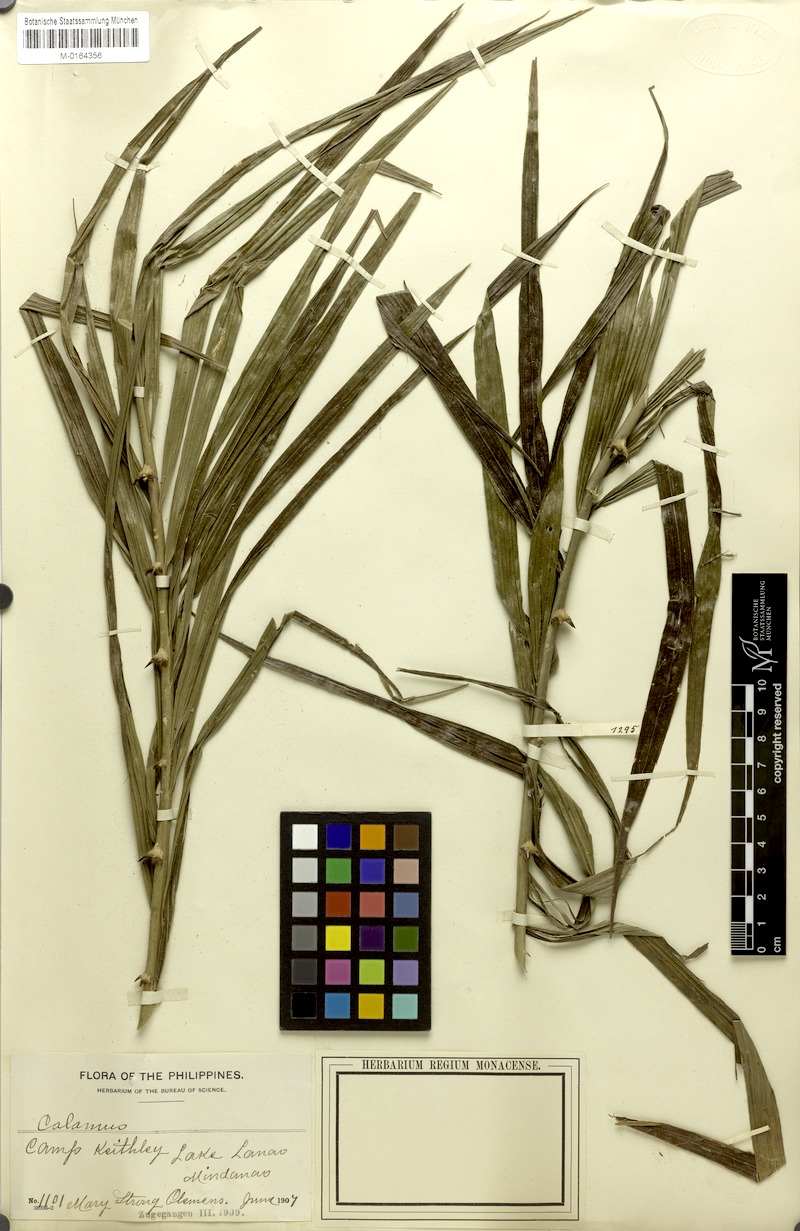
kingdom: Plantae
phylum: Tracheophyta
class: Liliopsida
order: Arecales
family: Arecaceae
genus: Calamus
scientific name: Calamus siphonospathus
